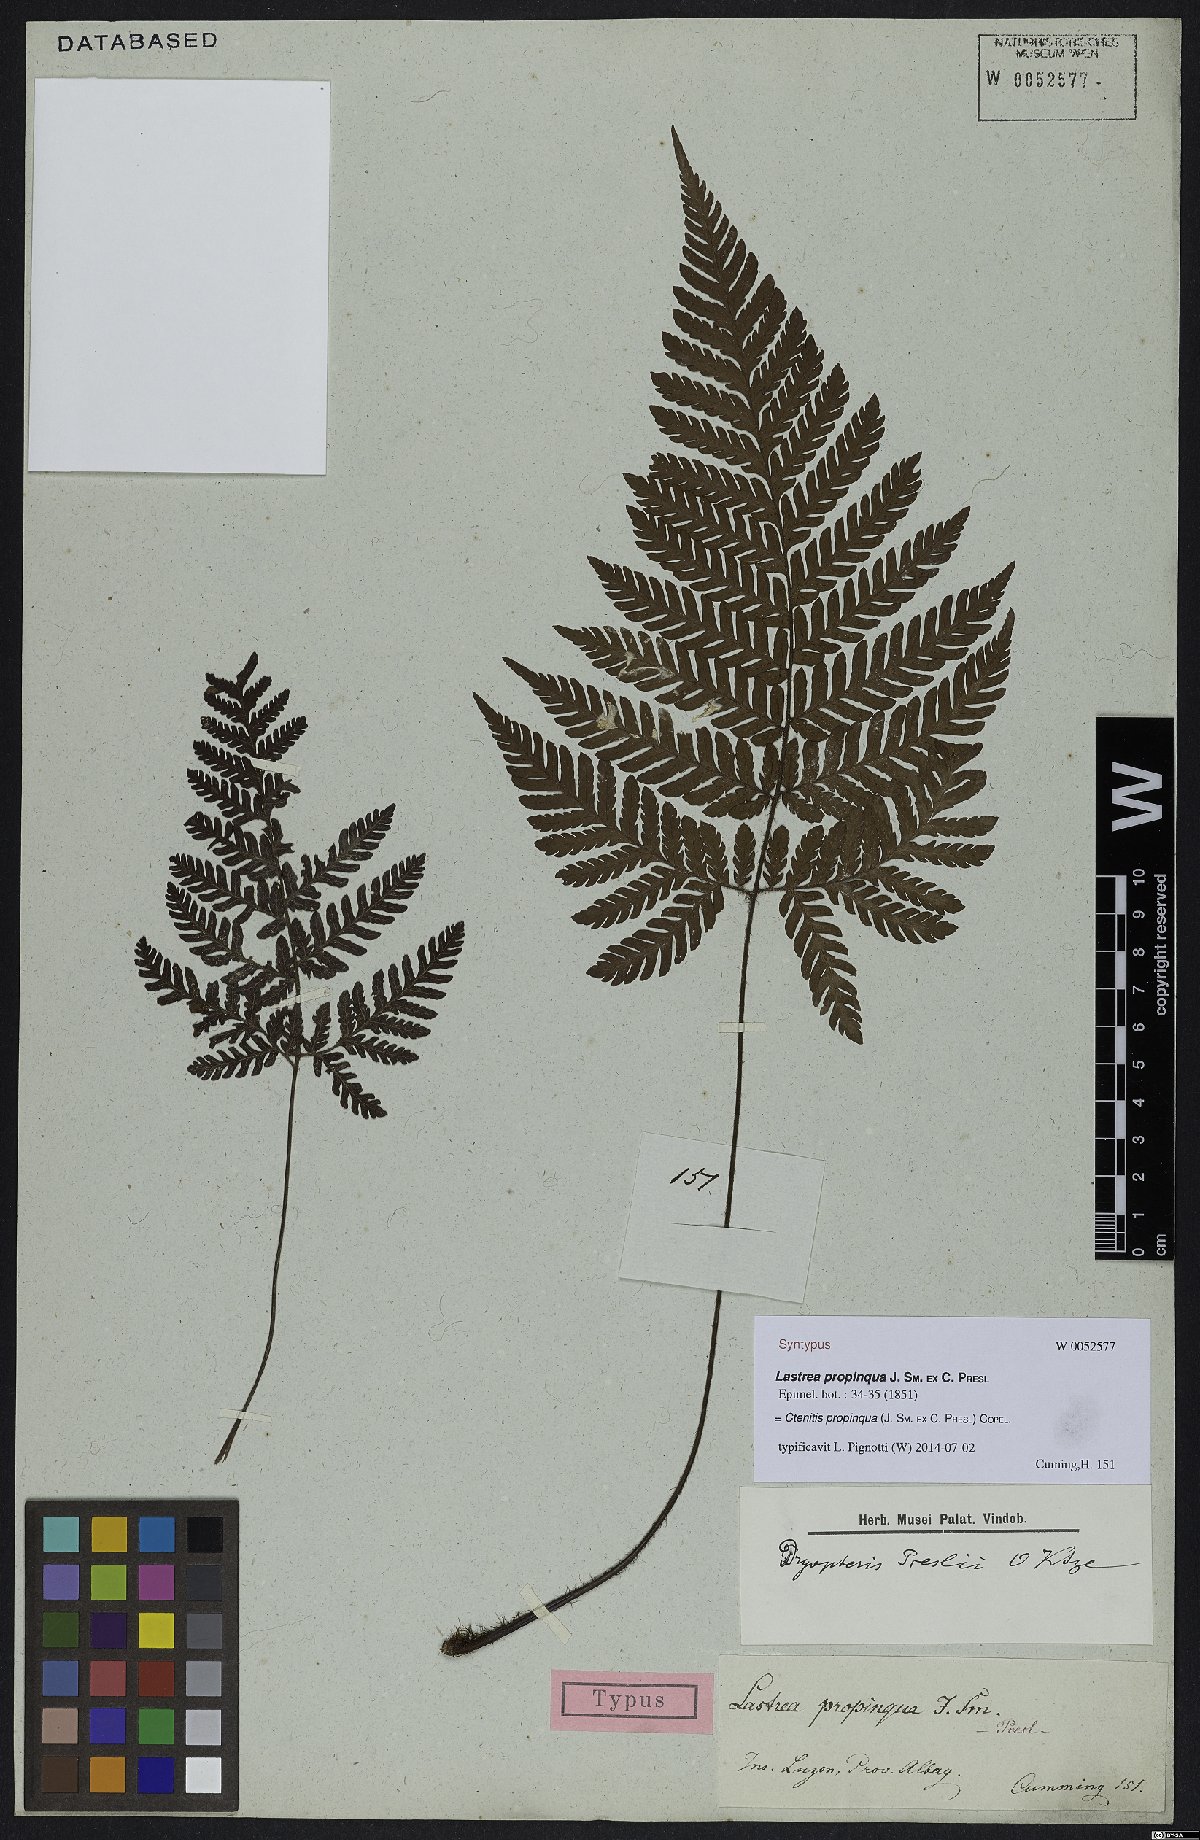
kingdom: Plantae
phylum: Tracheophyta
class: Polypodiopsida
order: Polypodiales
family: Dryopteridaceae
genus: Ctenitis
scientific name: Ctenitis propinqua
